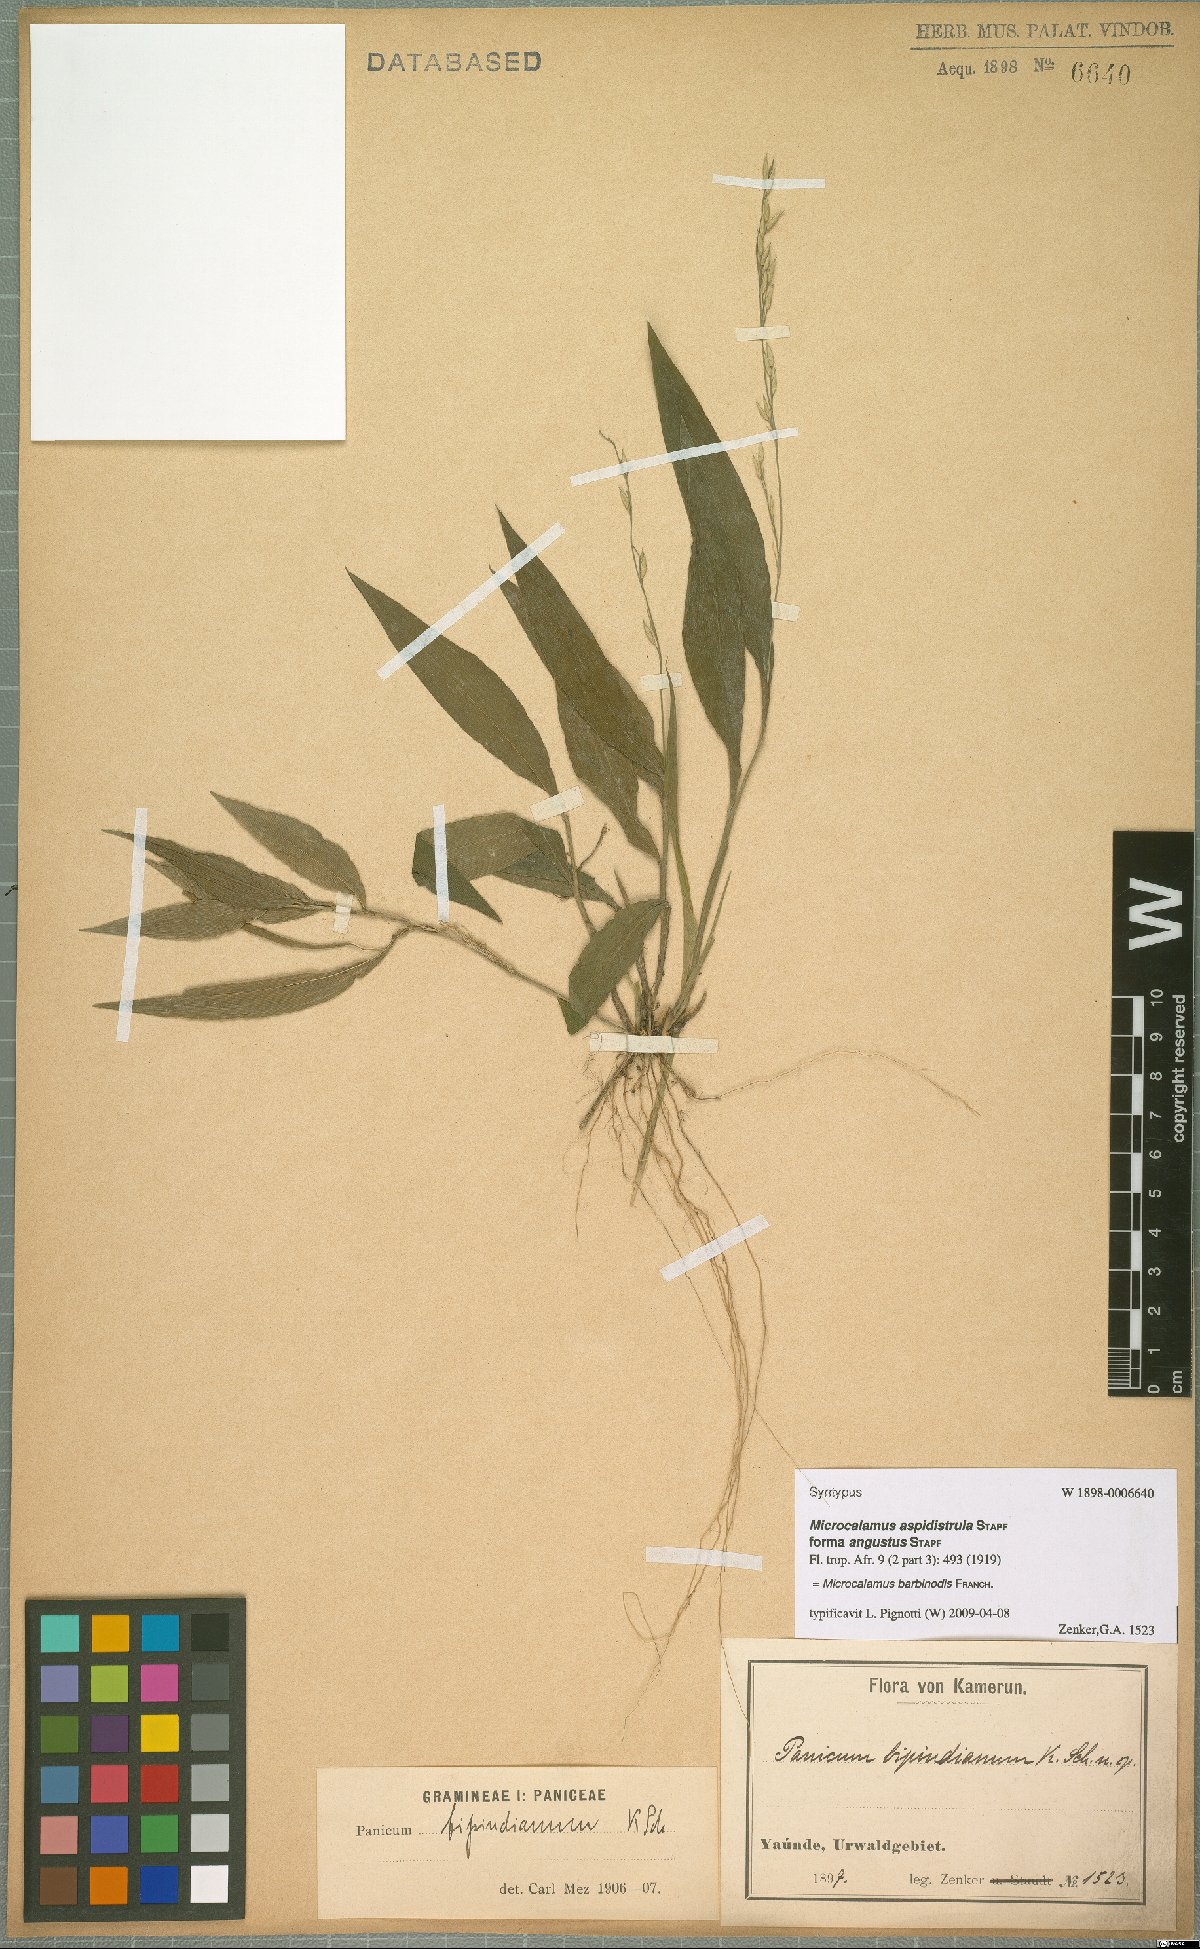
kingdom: Plantae
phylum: Tracheophyta
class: Liliopsida
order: Poales
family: Poaceae
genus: Microcalamus
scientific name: Microcalamus barbinodis
